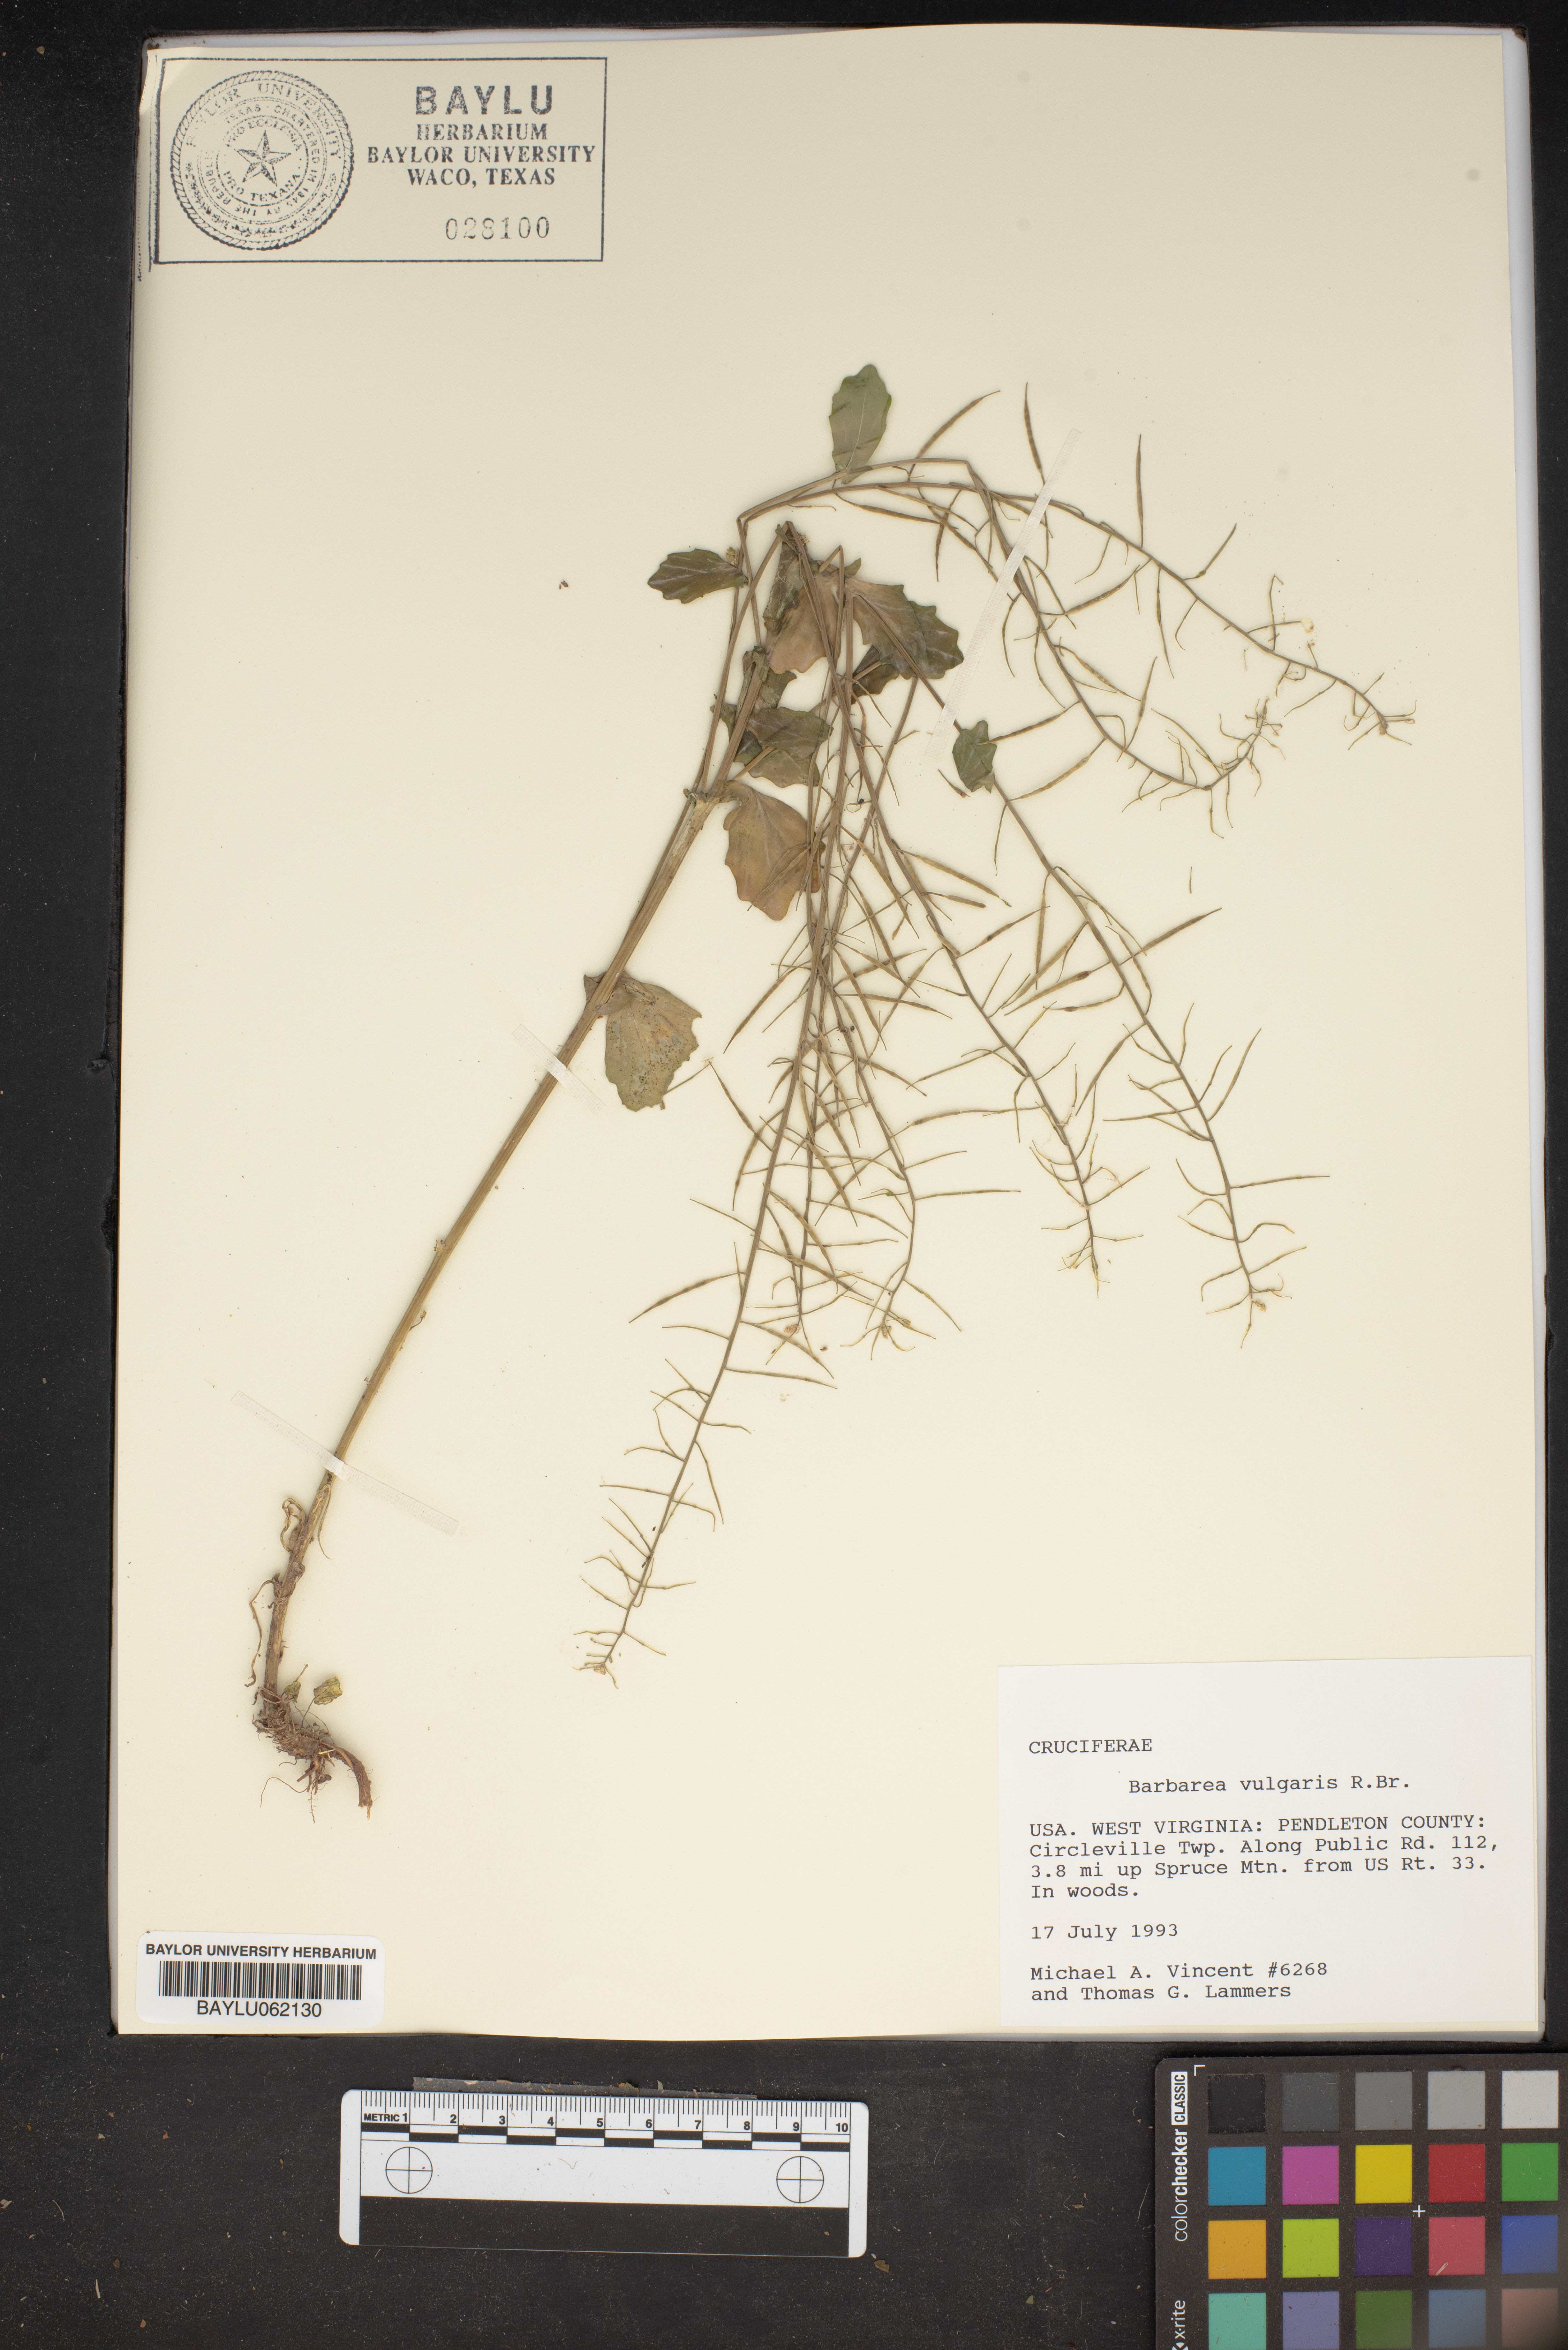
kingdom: Plantae
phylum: Tracheophyta
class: Magnoliopsida
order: Brassicales
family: Brassicaceae
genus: Barbarea
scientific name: Barbarea vulgaris
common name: Cressy-greens
